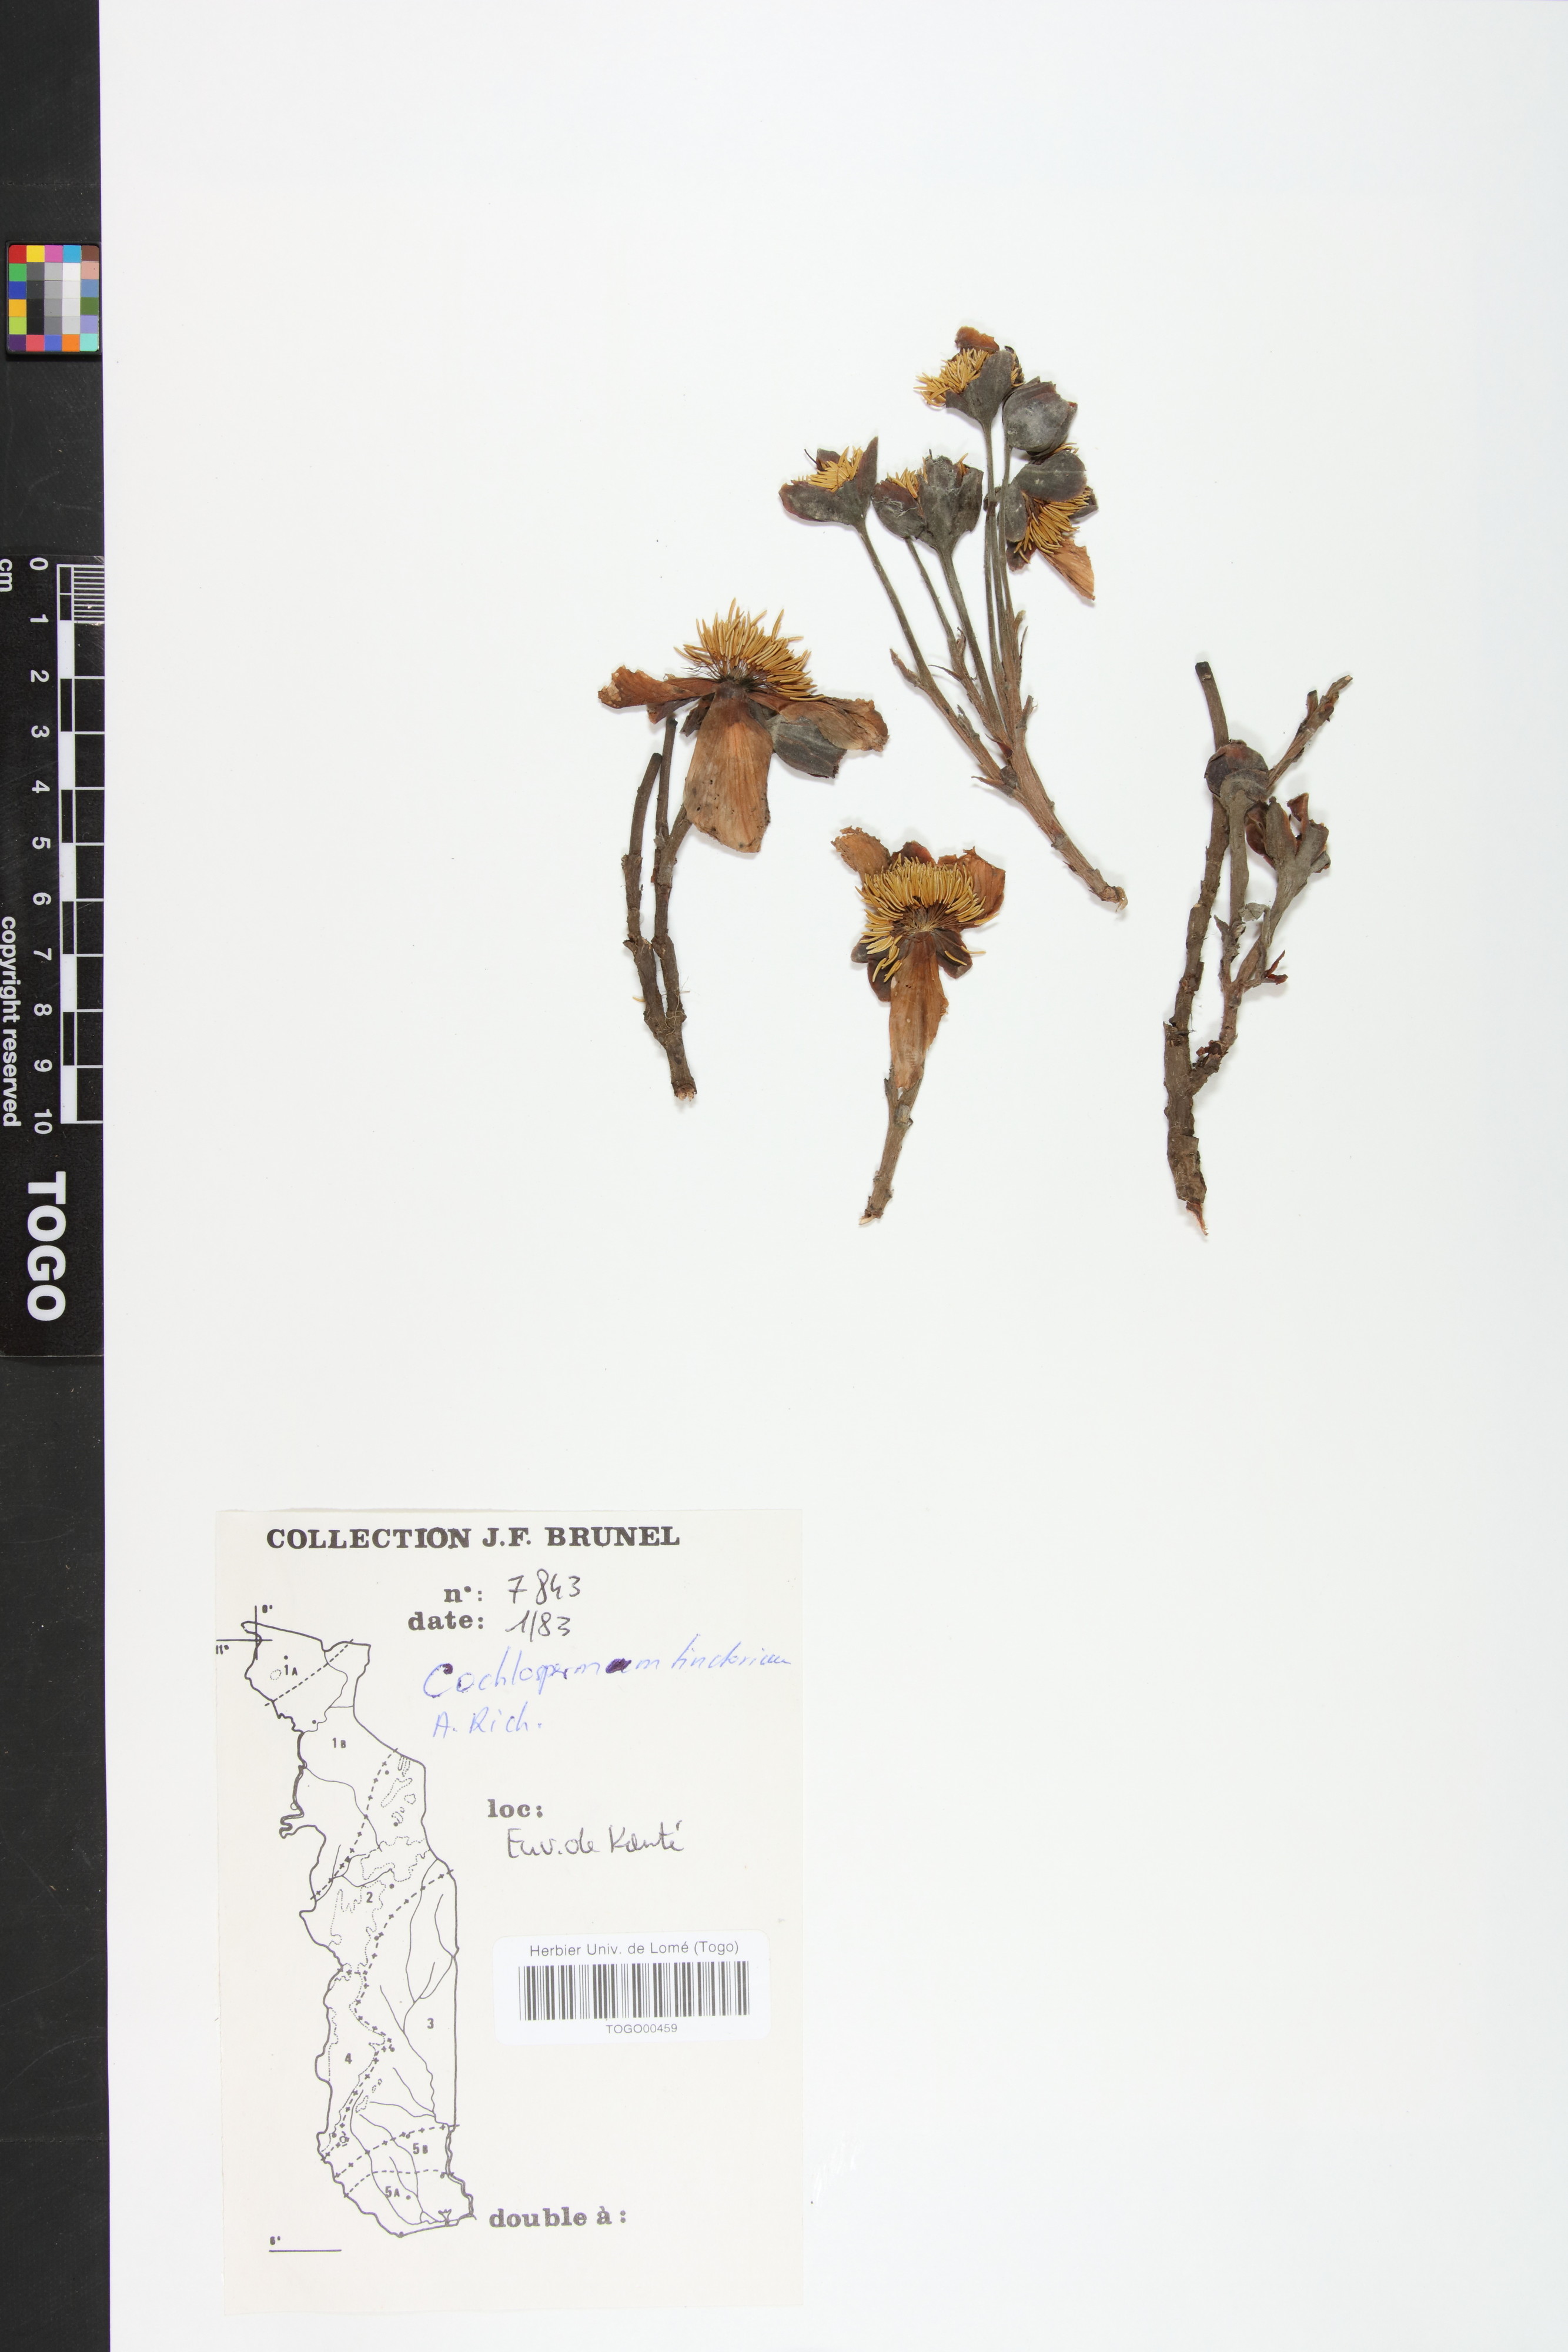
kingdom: Plantae
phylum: Tracheophyta
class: Magnoliopsida
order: Malvales
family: Cochlospermaceae
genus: Cochlospermum
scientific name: Cochlospermum tinctorium
